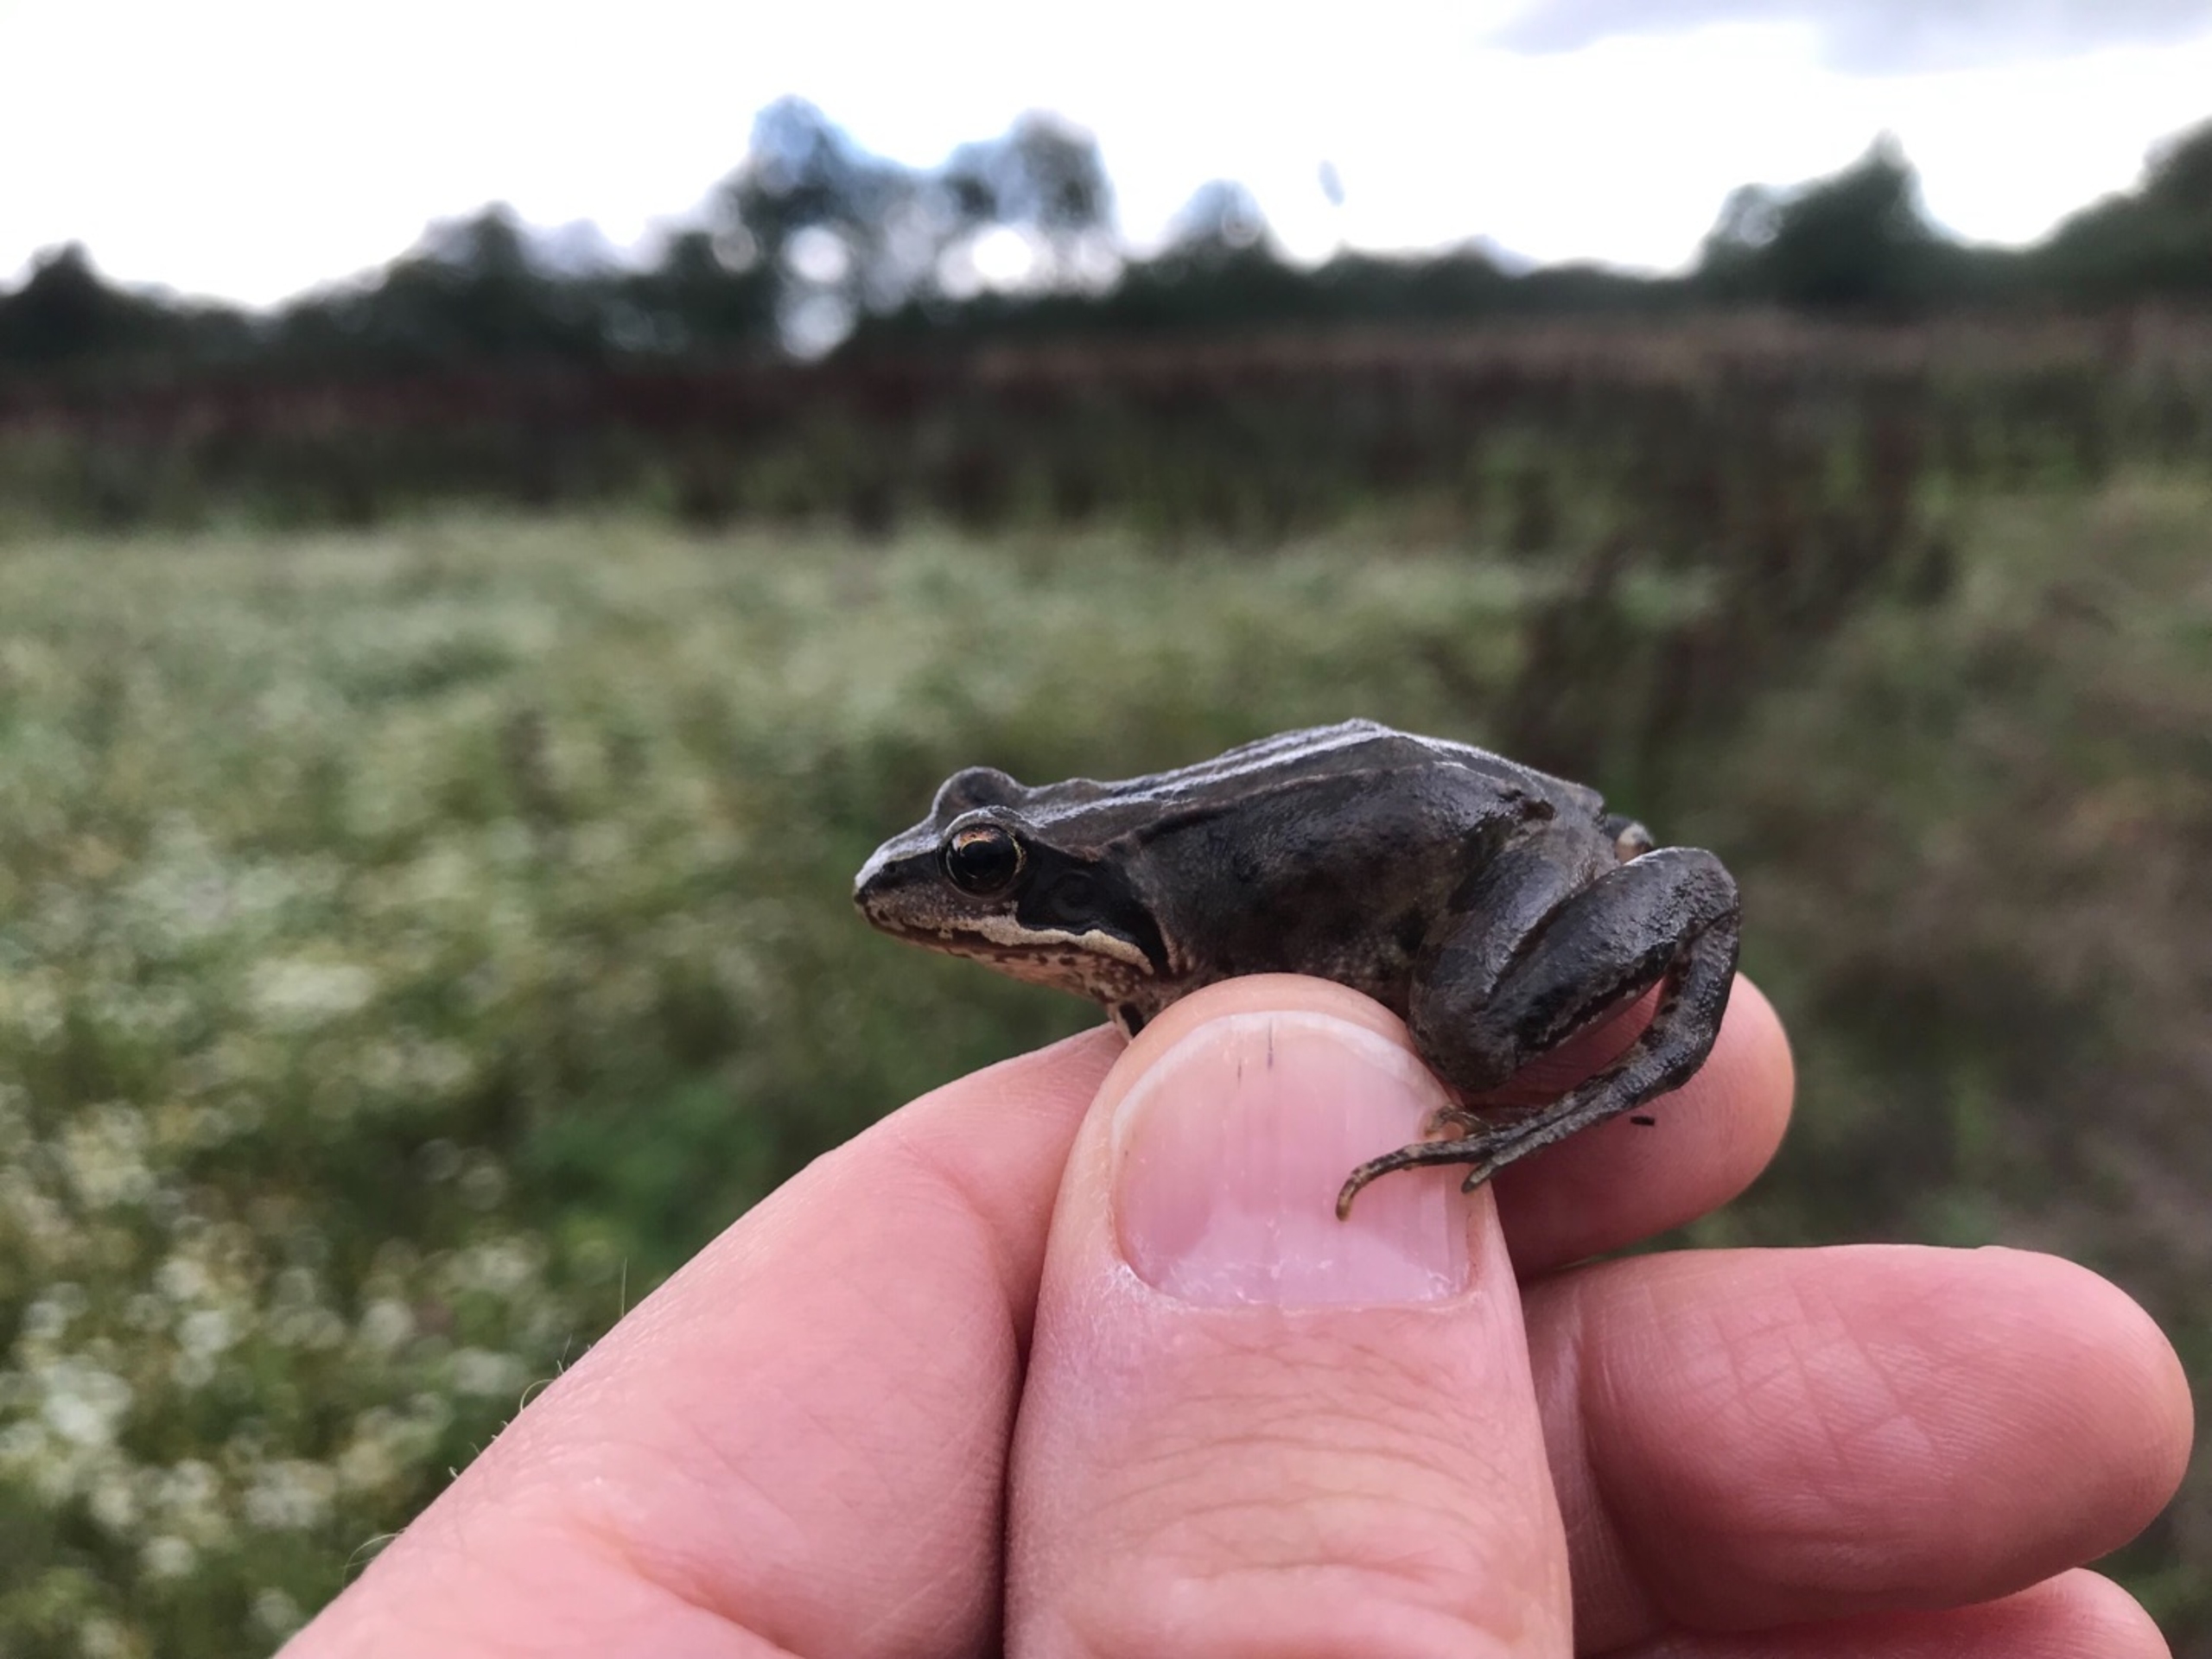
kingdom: Animalia
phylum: Chordata
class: Amphibia
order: Anura
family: Ranidae
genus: Rana
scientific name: Rana temporaria
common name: Butsnudet frø
